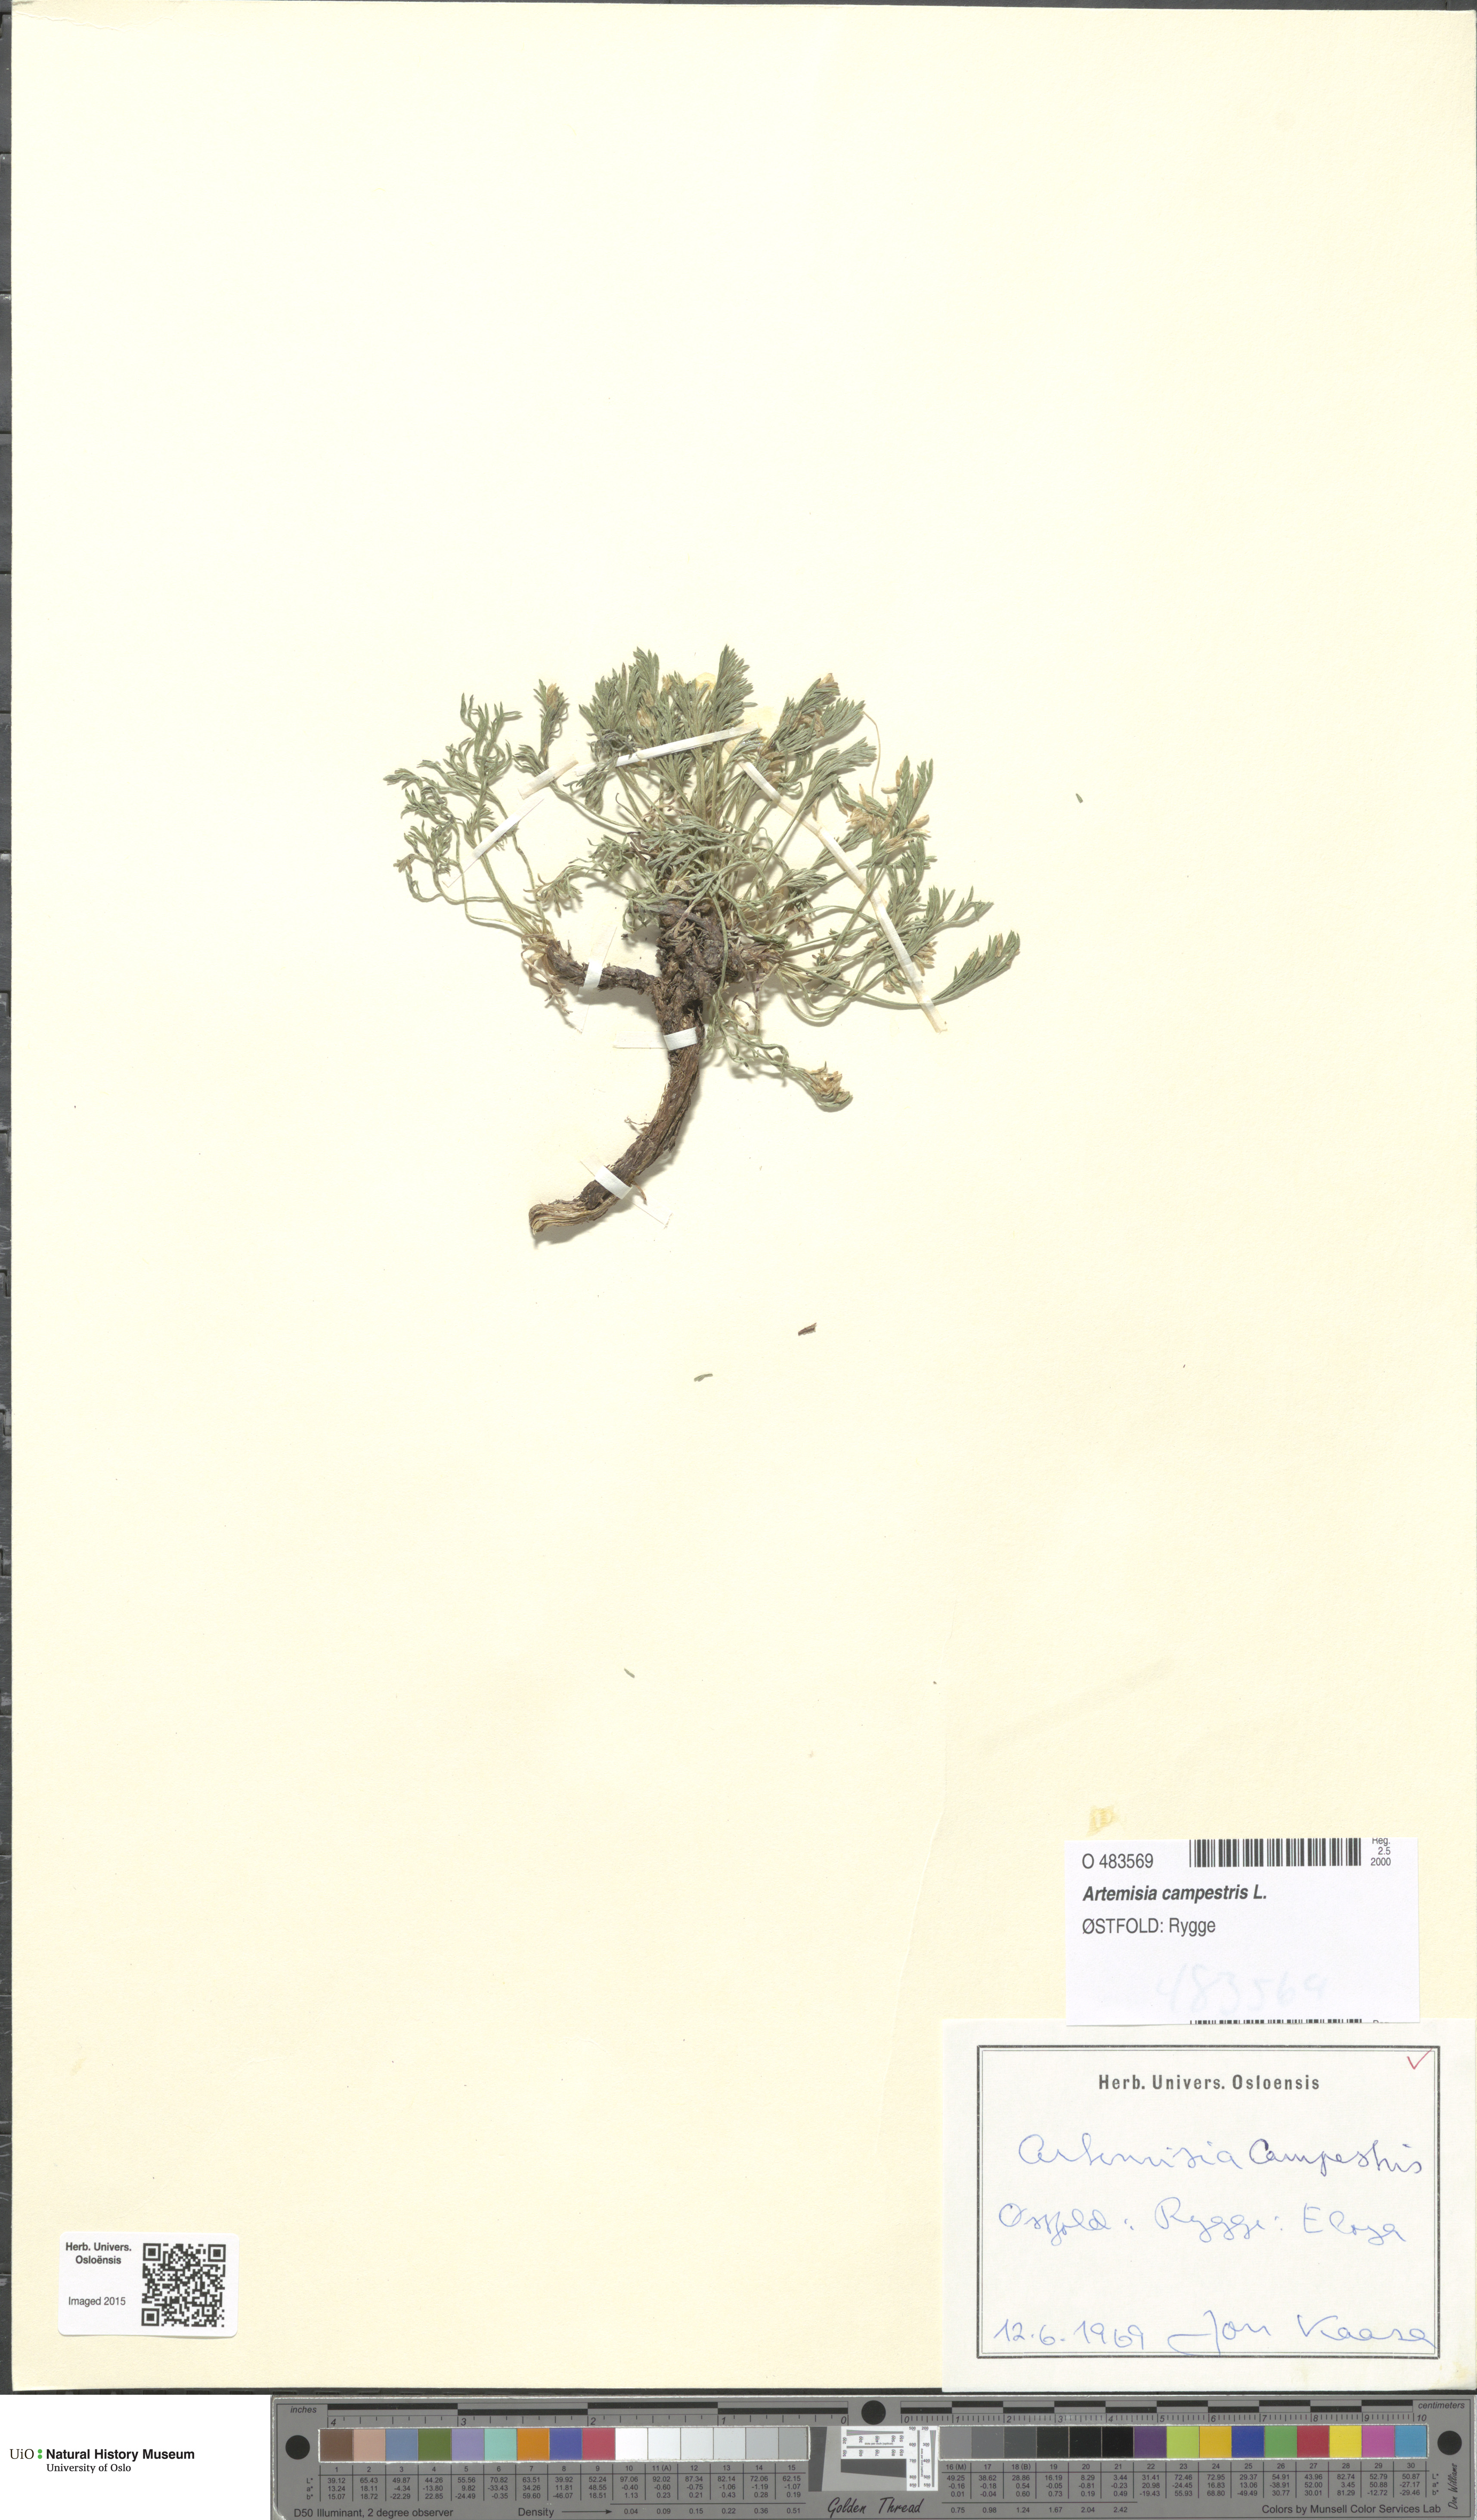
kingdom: Plantae
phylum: Tracheophyta
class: Magnoliopsida
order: Asterales
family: Asteraceae
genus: Artemisia
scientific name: Artemisia campestris
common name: Field wormwood
